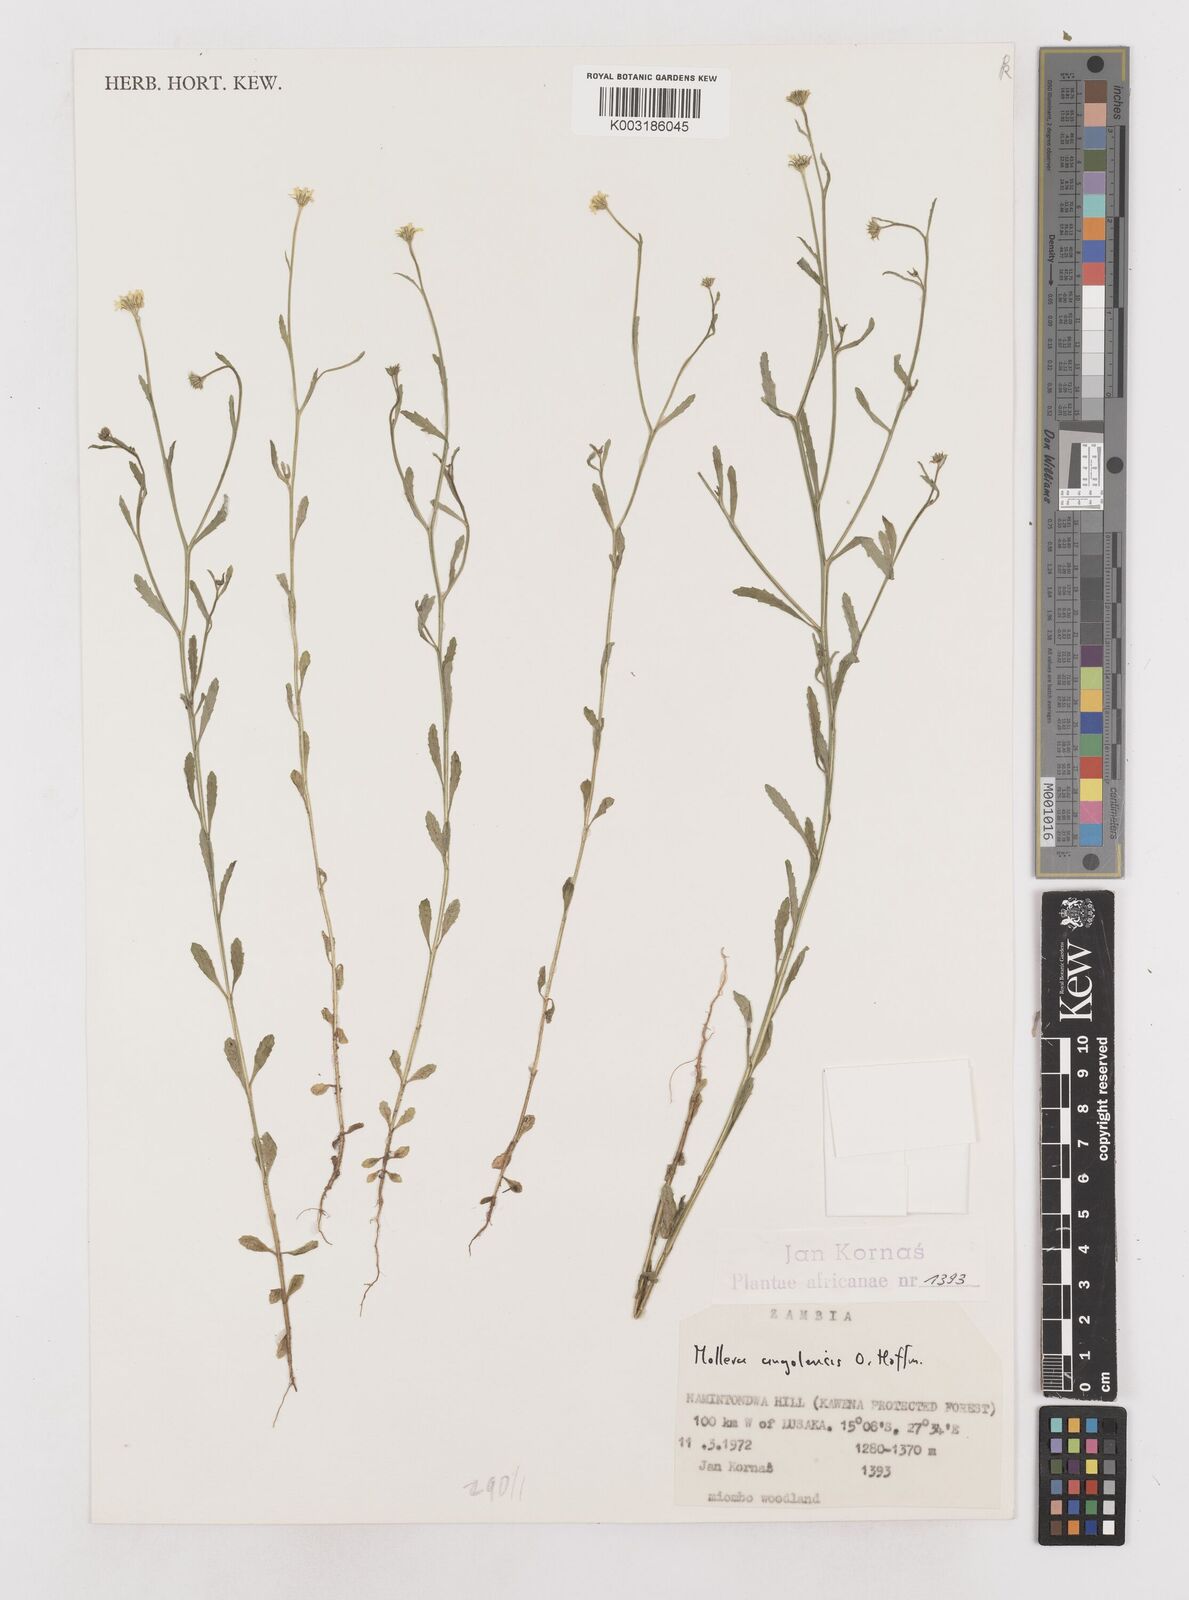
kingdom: Plantae
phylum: Tracheophyta
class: Magnoliopsida
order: Asterales
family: Asteraceae
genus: Calostephane
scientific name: Calostephane angolensis
